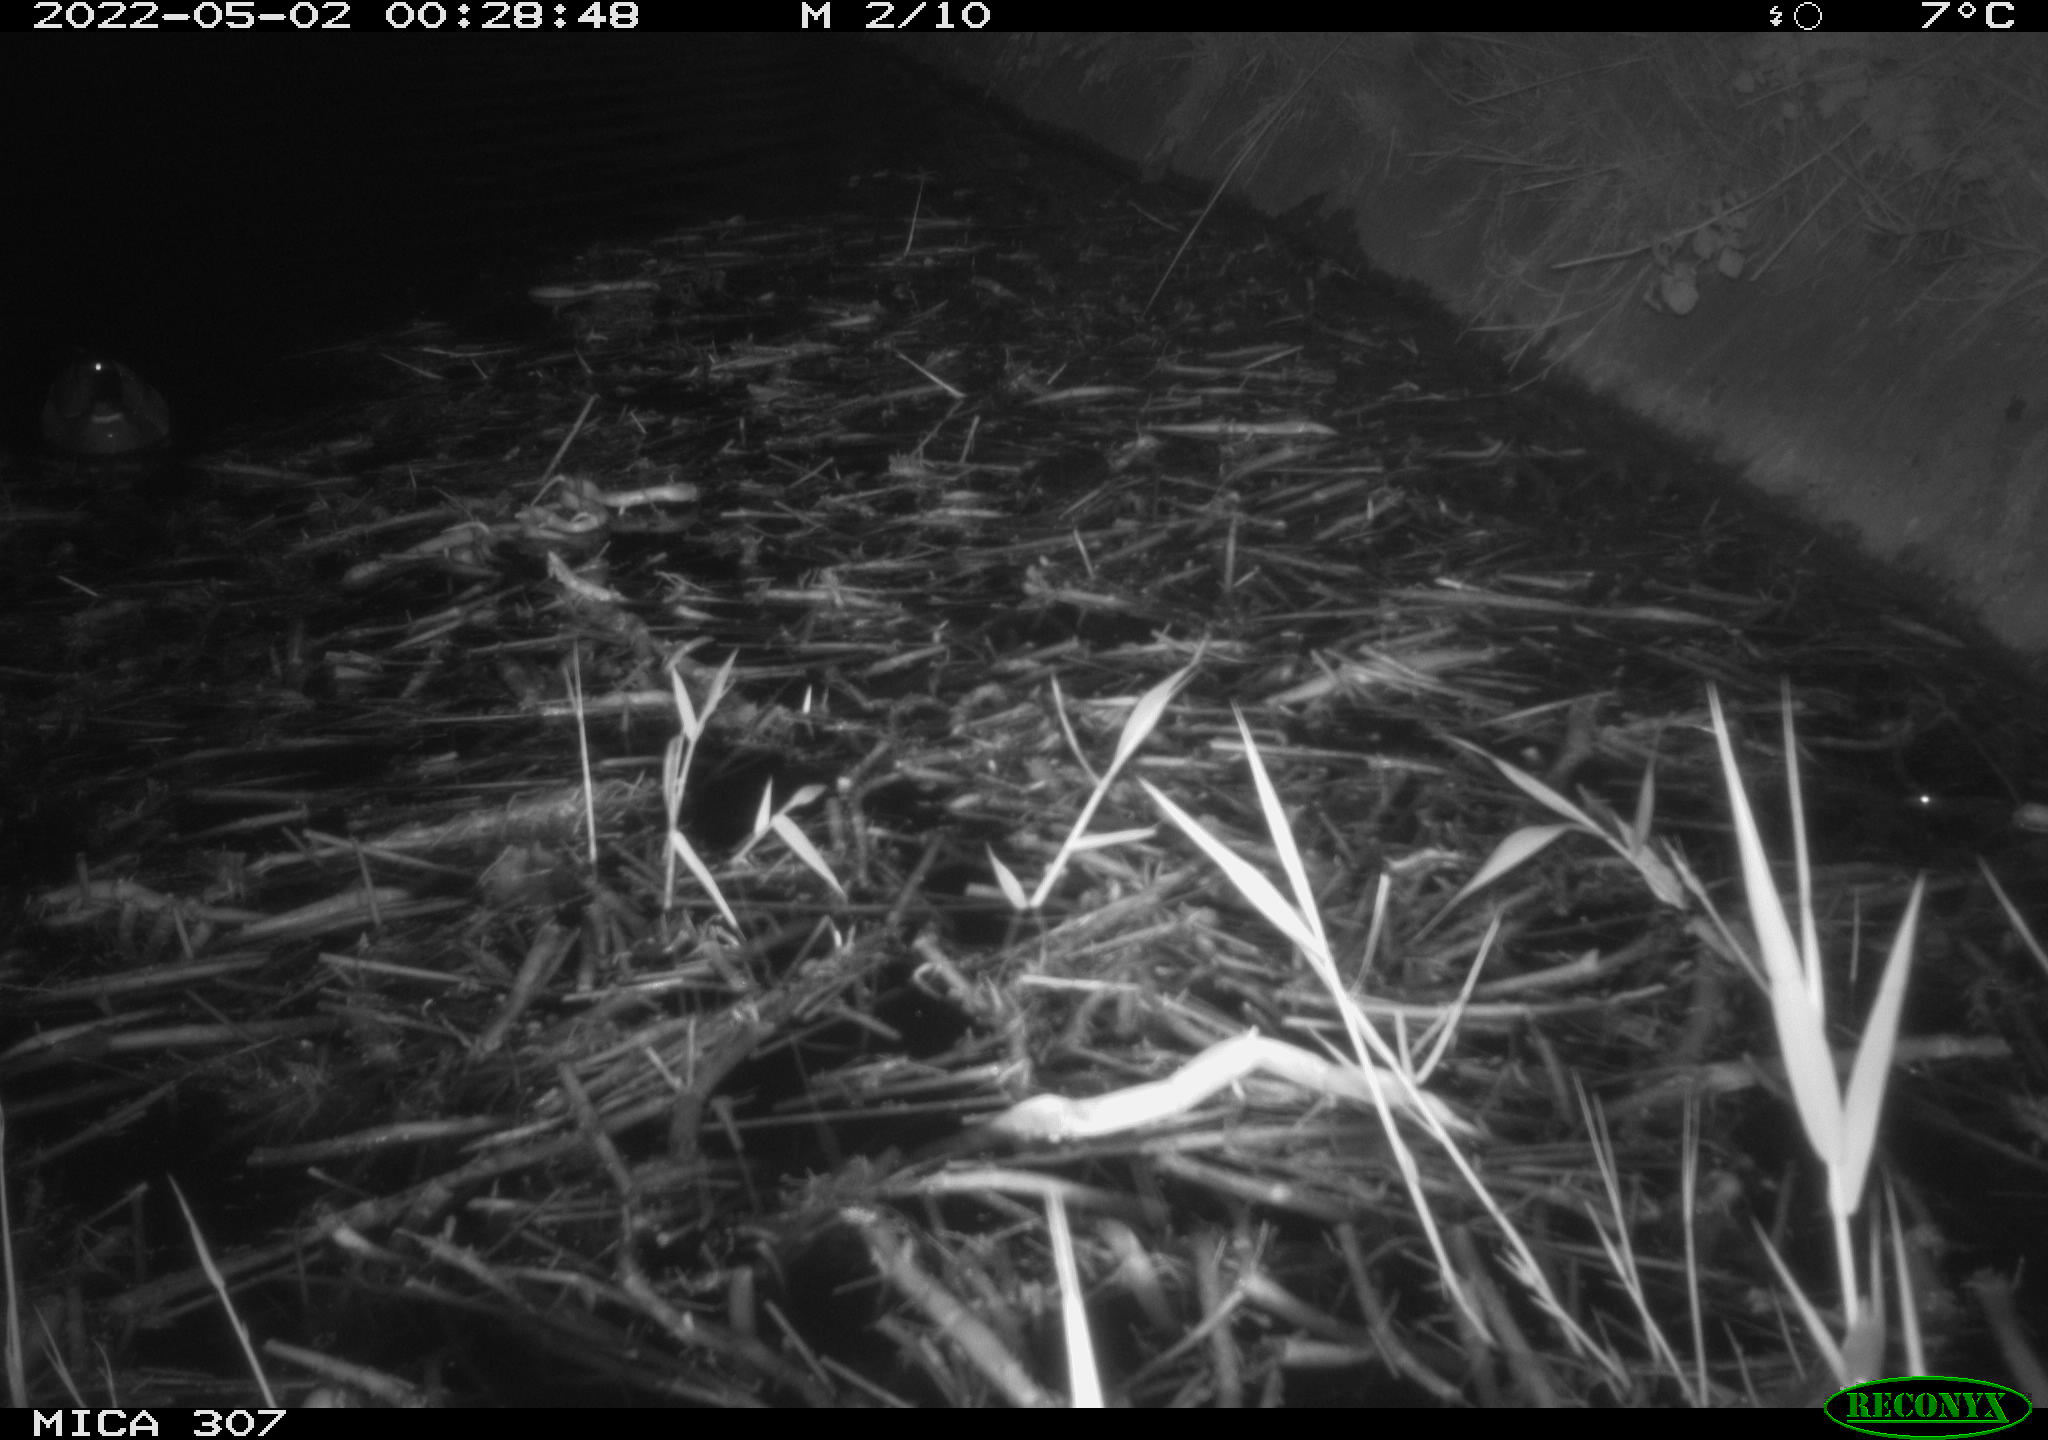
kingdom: Animalia
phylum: Chordata
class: Aves
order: Anseriformes
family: Anatidae
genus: Anas
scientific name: Anas platyrhynchos
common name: Mallard
